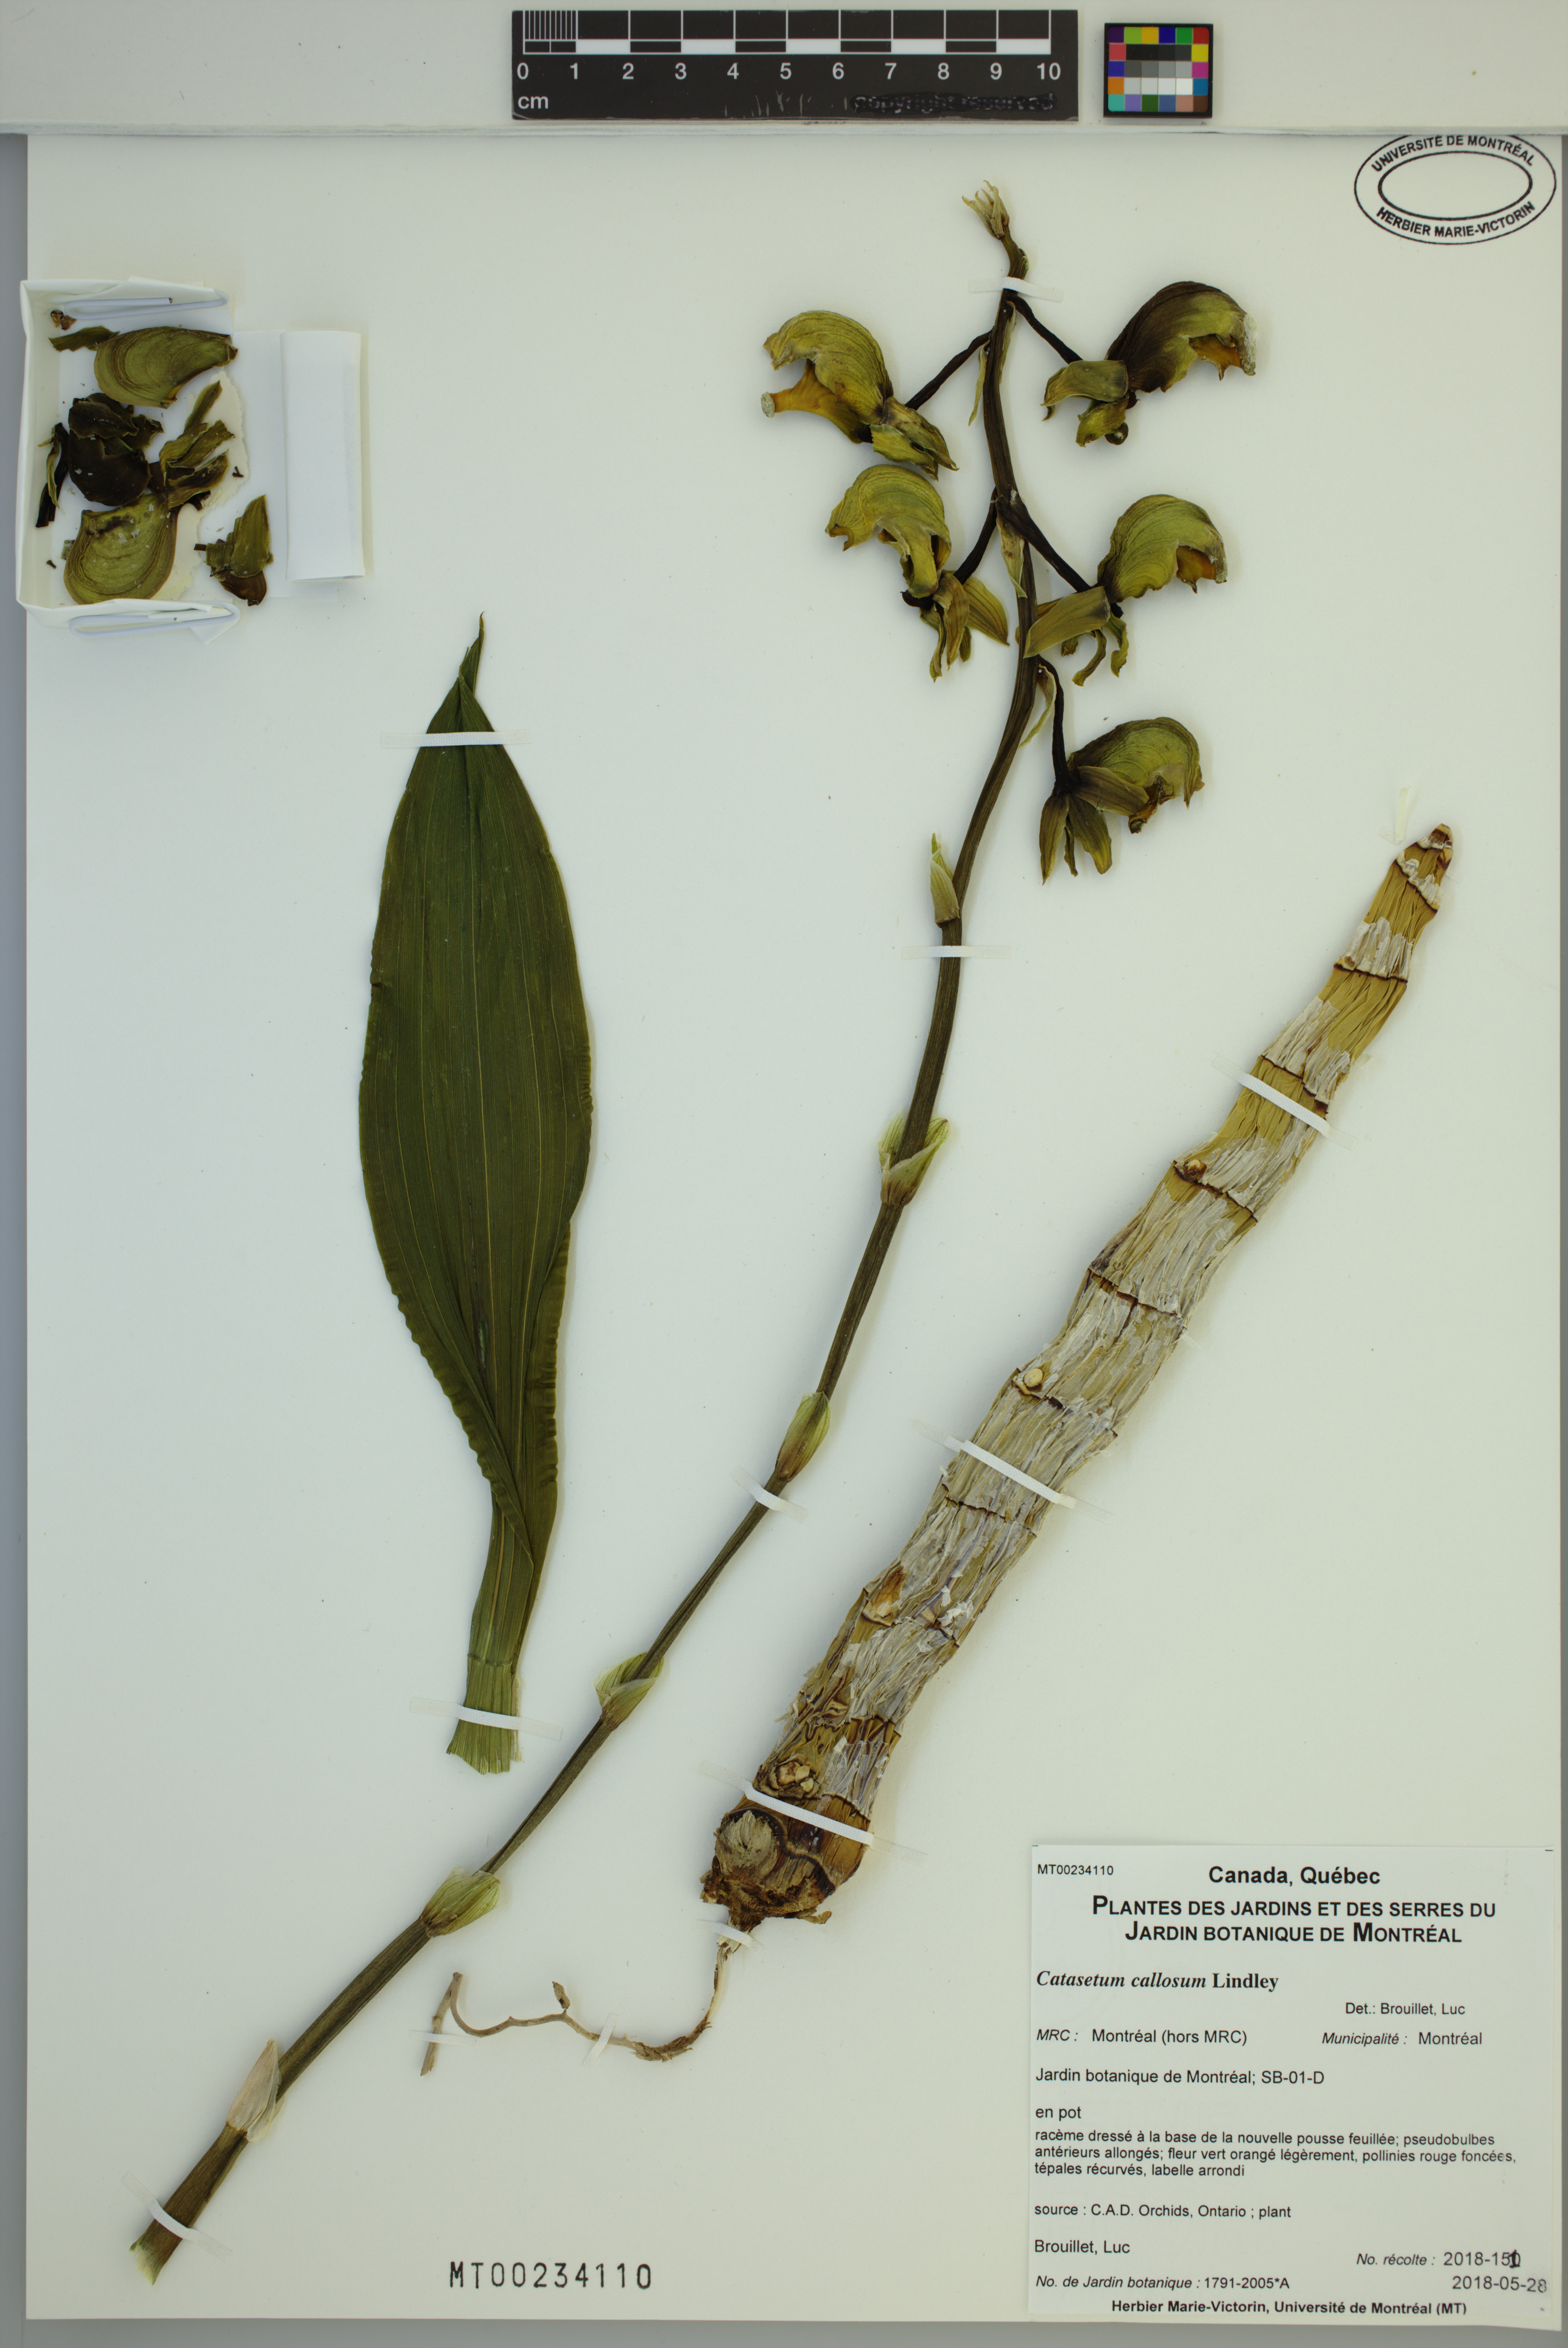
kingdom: Plantae
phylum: Tracheophyta
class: Liliopsida
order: Asparagales
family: Orchidaceae
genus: Catasetum
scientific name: Catasetum callosum
